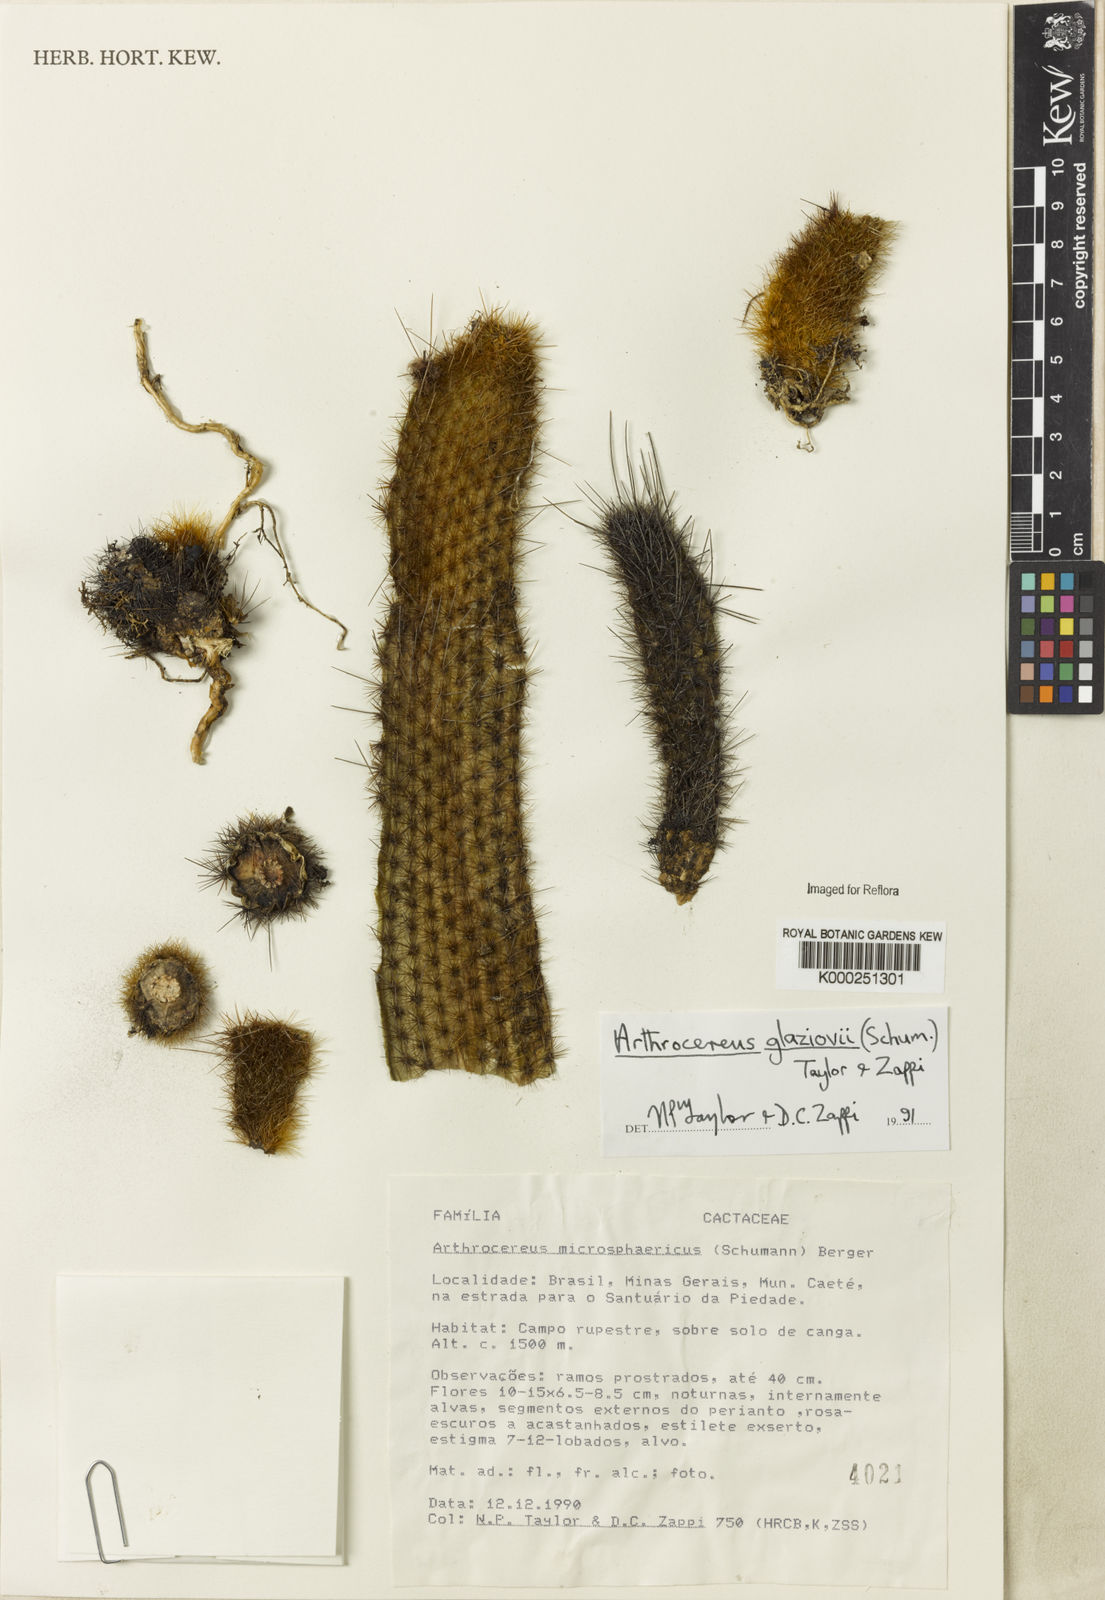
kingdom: Plantae
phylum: Tracheophyta
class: Magnoliopsida
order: Caryophyllales
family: Cactaceae
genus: Arthrocereus
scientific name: Arthrocereus glaziovii
